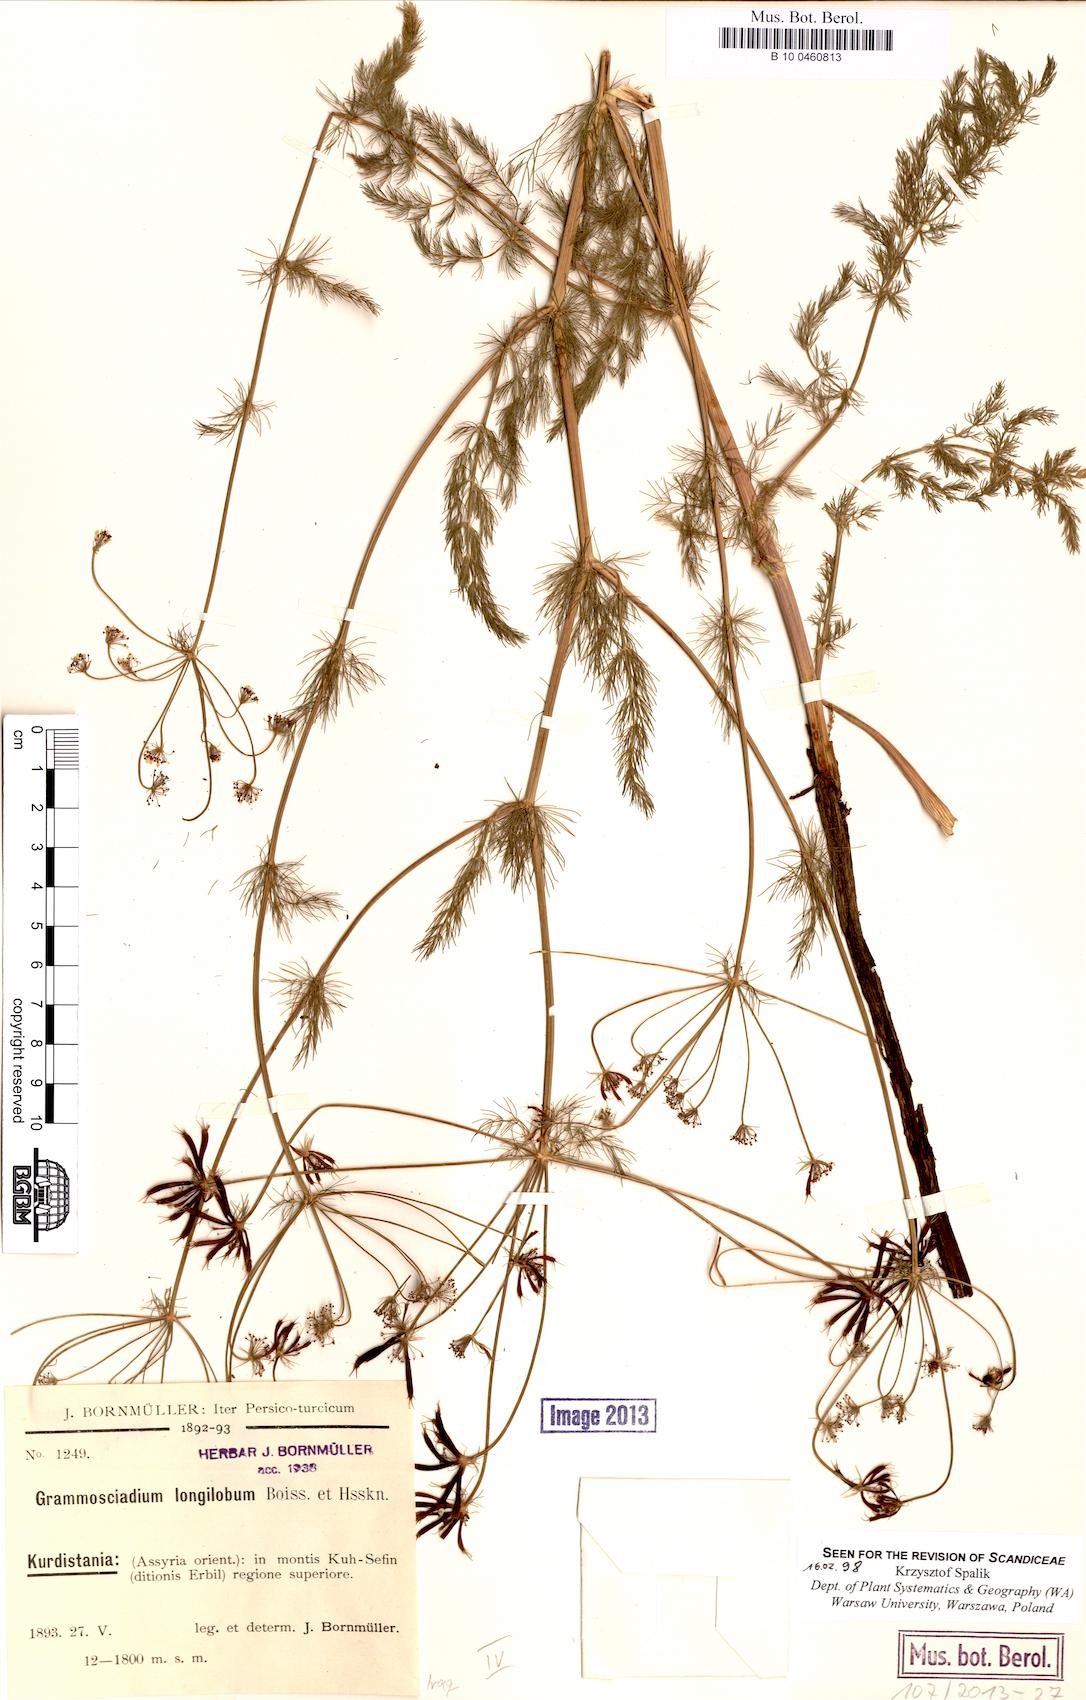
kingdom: Plantae
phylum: Tracheophyta
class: Magnoliopsida
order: Apiales
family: Apiaceae
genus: Grammosciadium
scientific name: Grammosciadium scabridum
